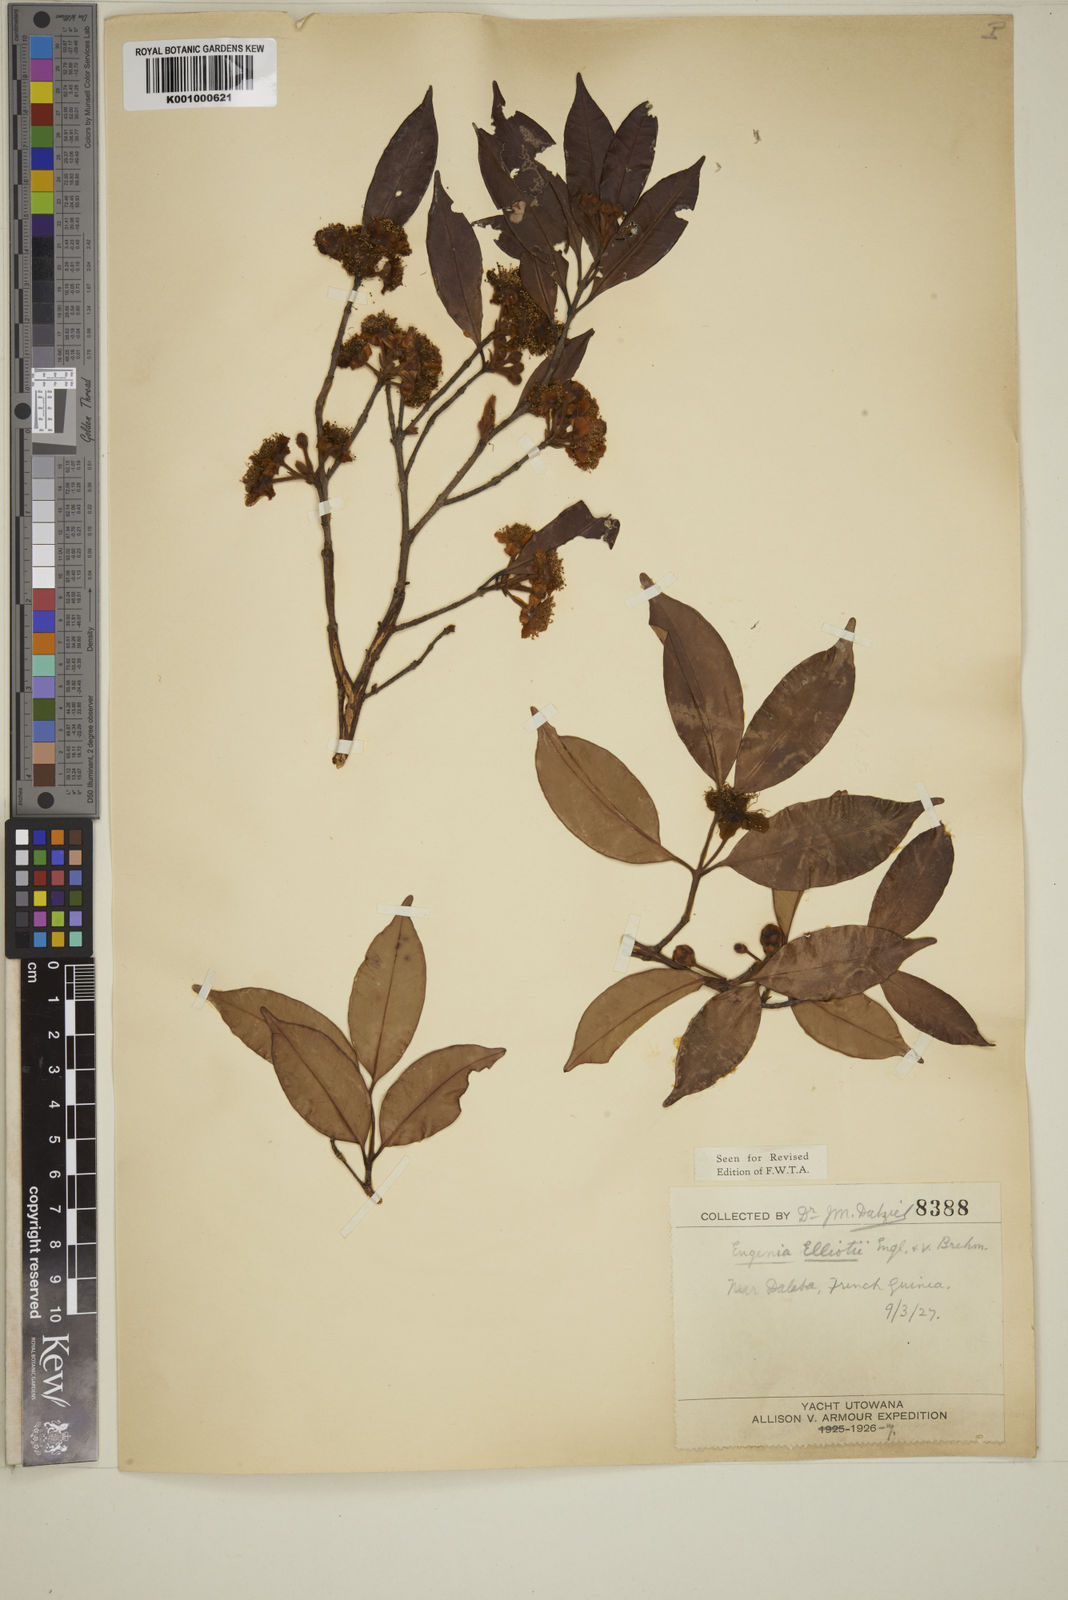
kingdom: Plantae
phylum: Tracheophyta
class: Magnoliopsida
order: Myrtales
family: Myrtaceae
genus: Eugenia
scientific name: Eugenia elliotii
